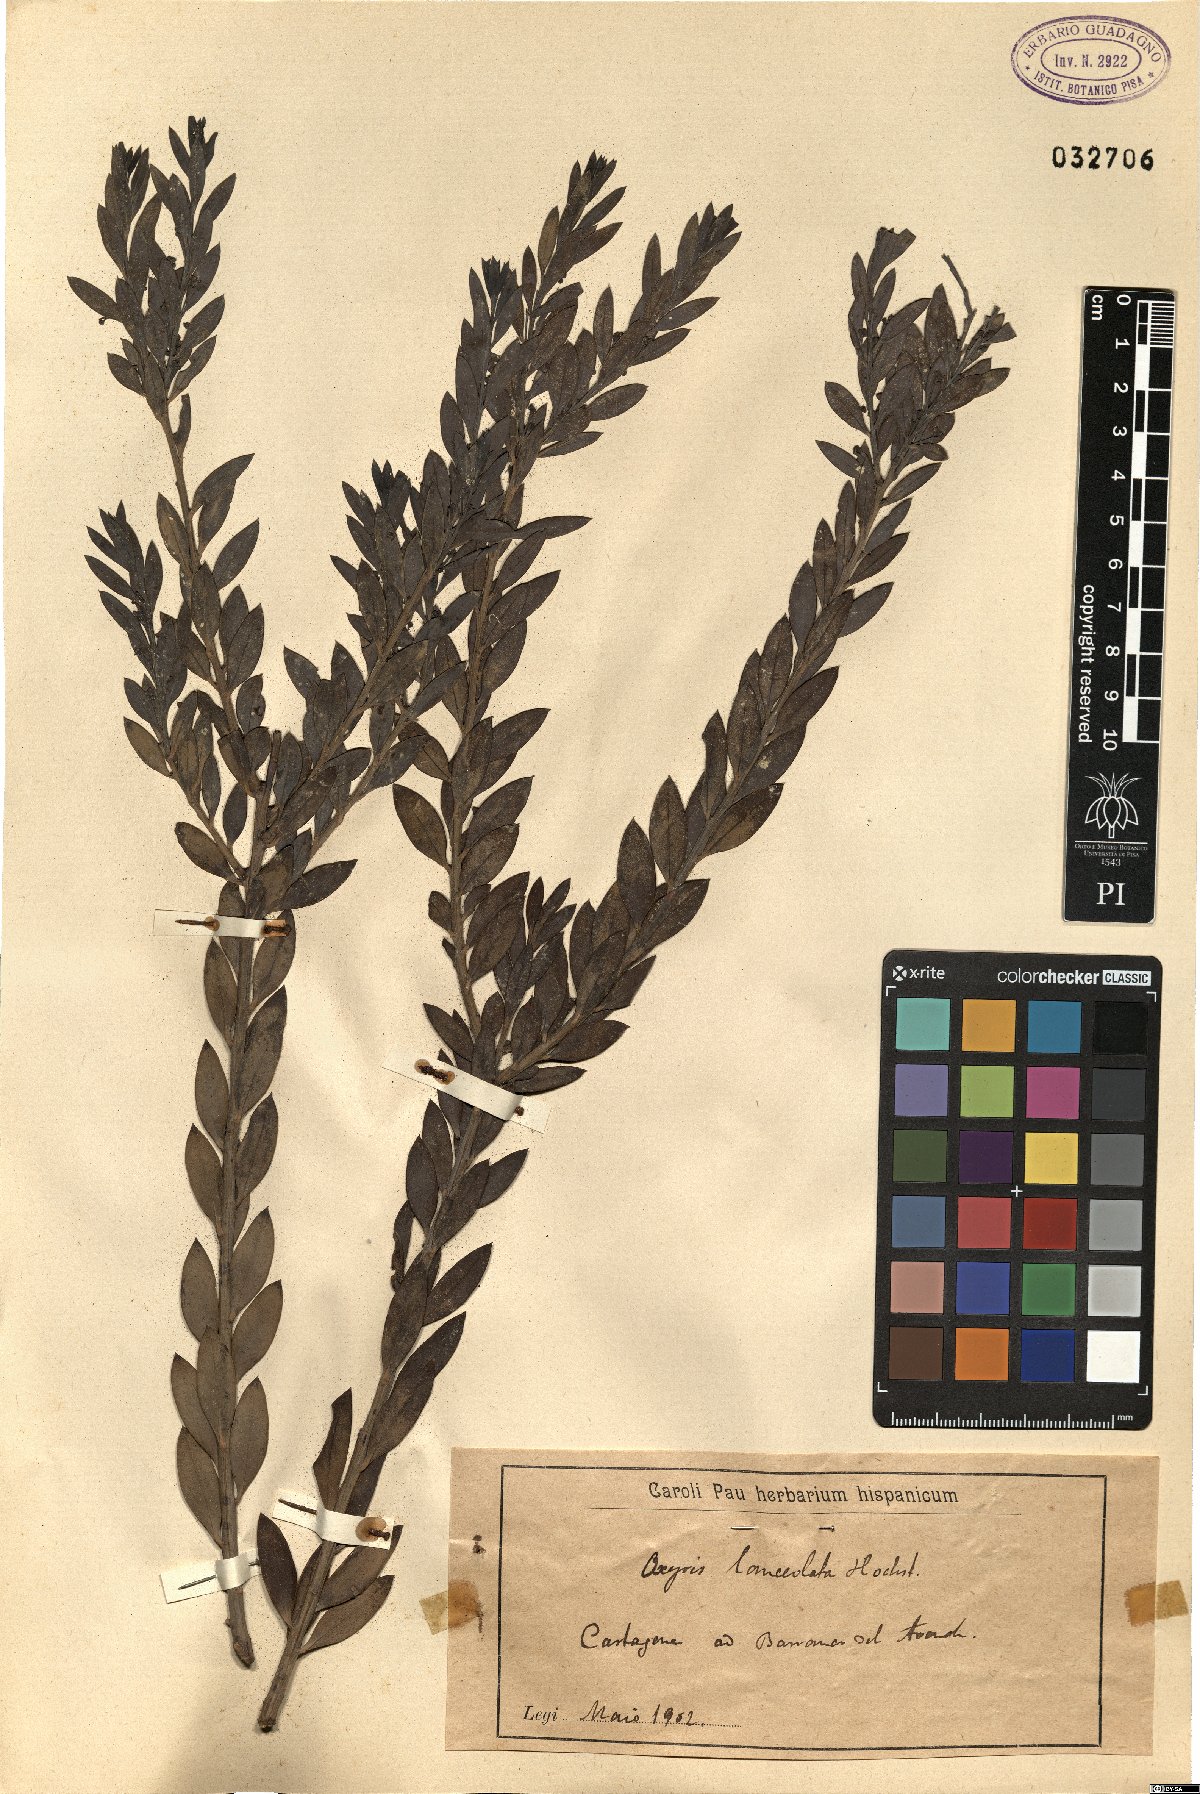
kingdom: Plantae
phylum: Tracheophyta
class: Magnoliopsida
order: Santalales
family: Santalaceae
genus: Osyris
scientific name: Osyris lanceolata
